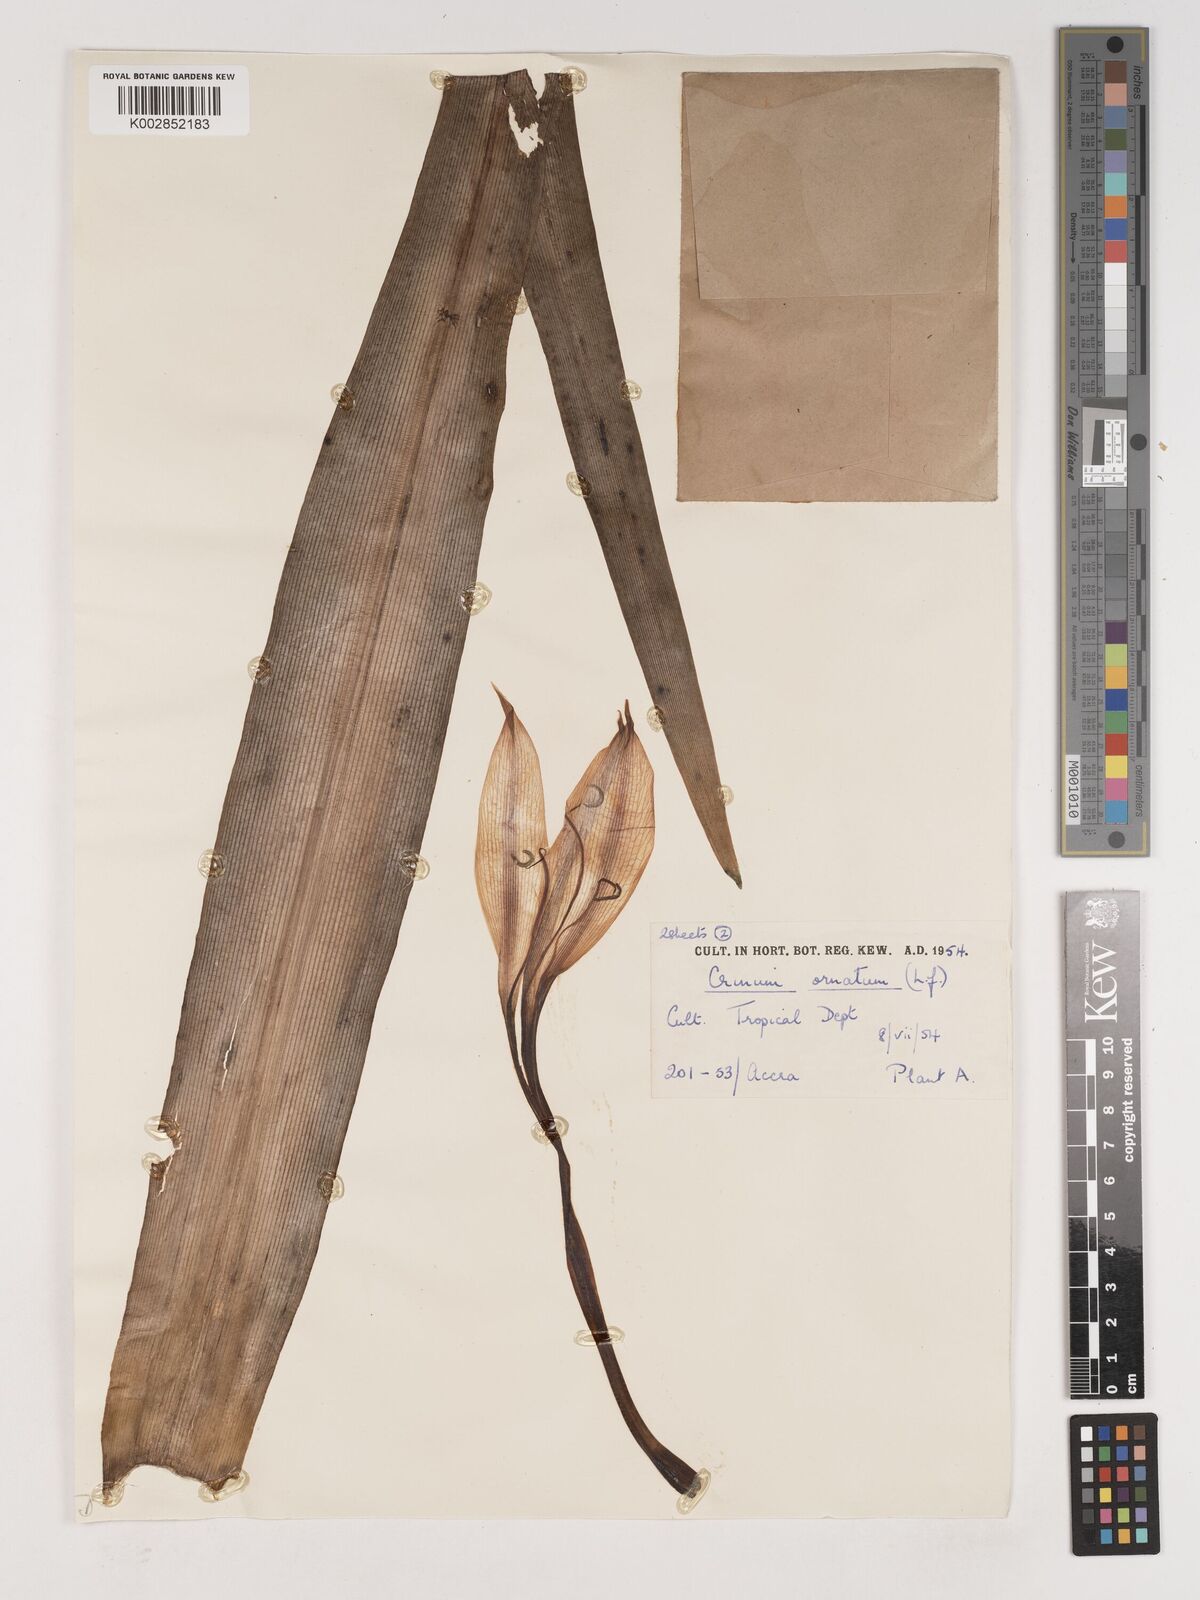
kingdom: Plantae
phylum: Tracheophyta
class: Liliopsida
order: Asparagales
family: Amaryllidaceae
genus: Crinum
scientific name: Crinum ornatum
